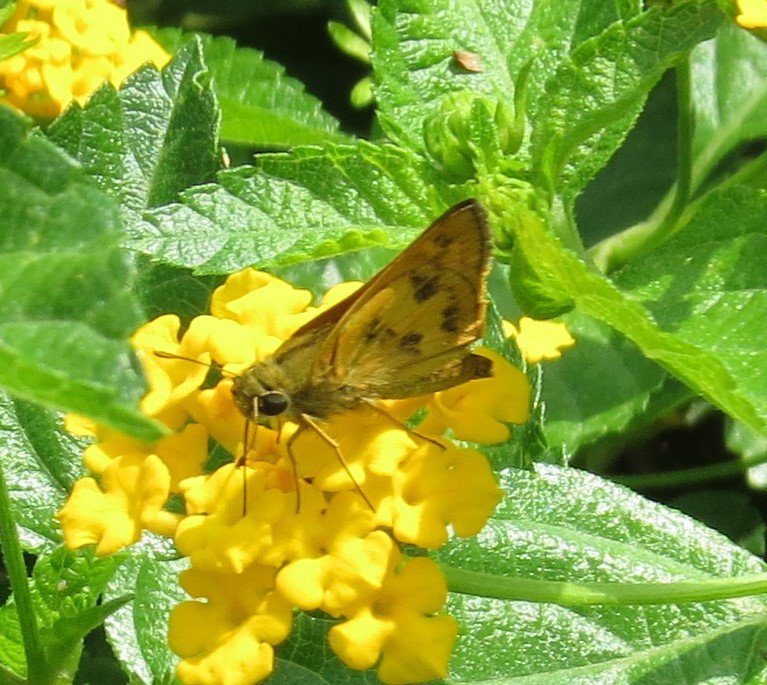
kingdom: Animalia
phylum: Arthropoda
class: Insecta
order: Lepidoptera
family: Hesperiidae
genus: Polites
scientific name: Polites vibex
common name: Whirlabout
